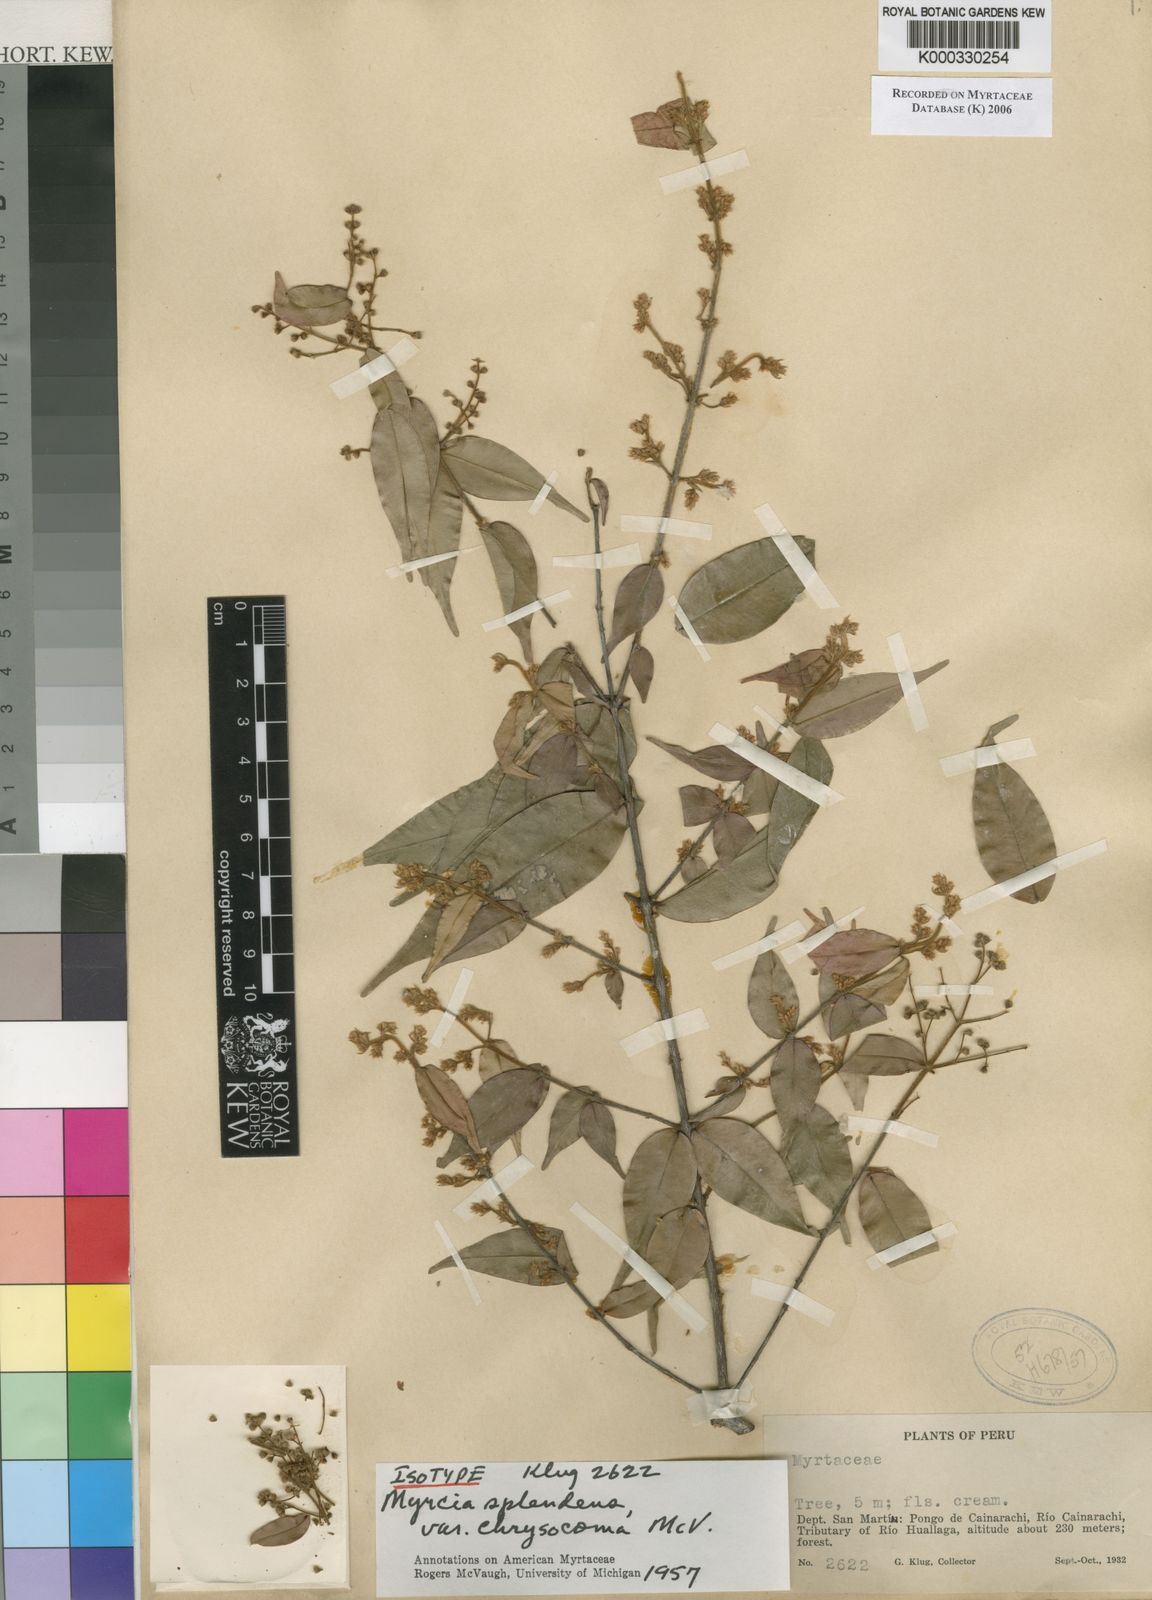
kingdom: Plantae
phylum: Tracheophyta
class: Magnoliopsida
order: Myrtales
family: Myrtaceae
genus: Myrcia
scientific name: Myrcia splendens
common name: Surinam cherry
